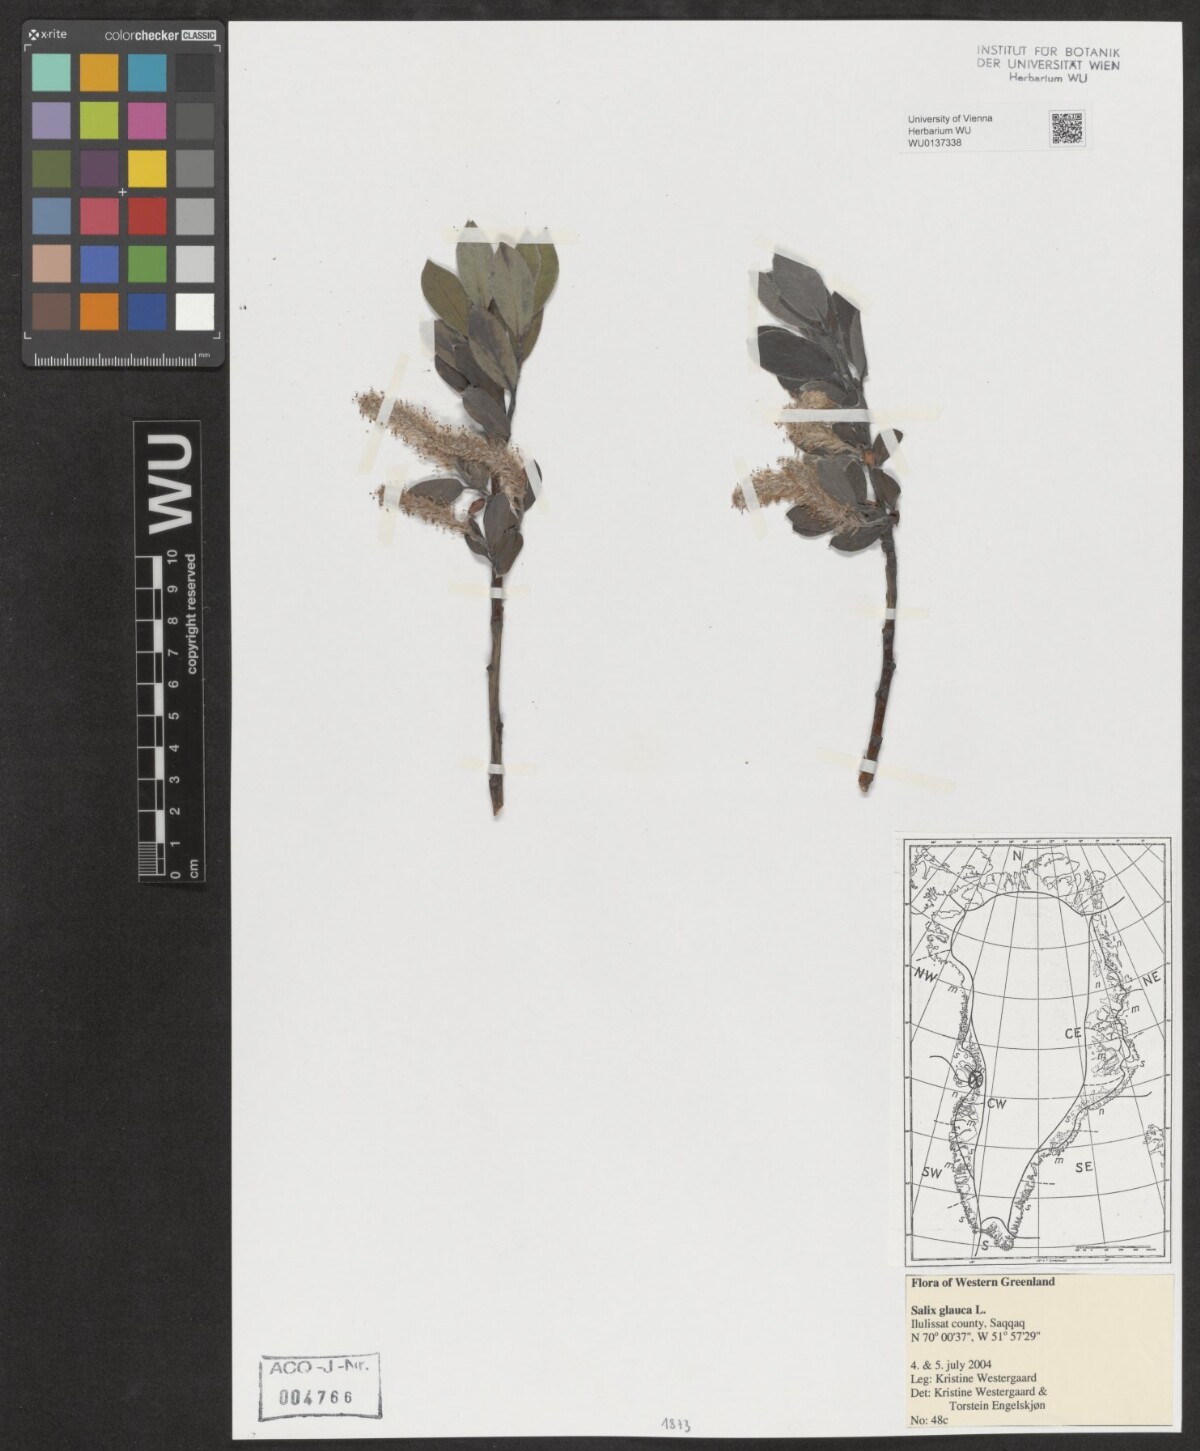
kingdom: Plantae
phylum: Tracheophyta
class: Magnoliopsida
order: Malpighiales
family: Salicaceae
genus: Salix
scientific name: Salix glauca
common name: Glaucous willow
